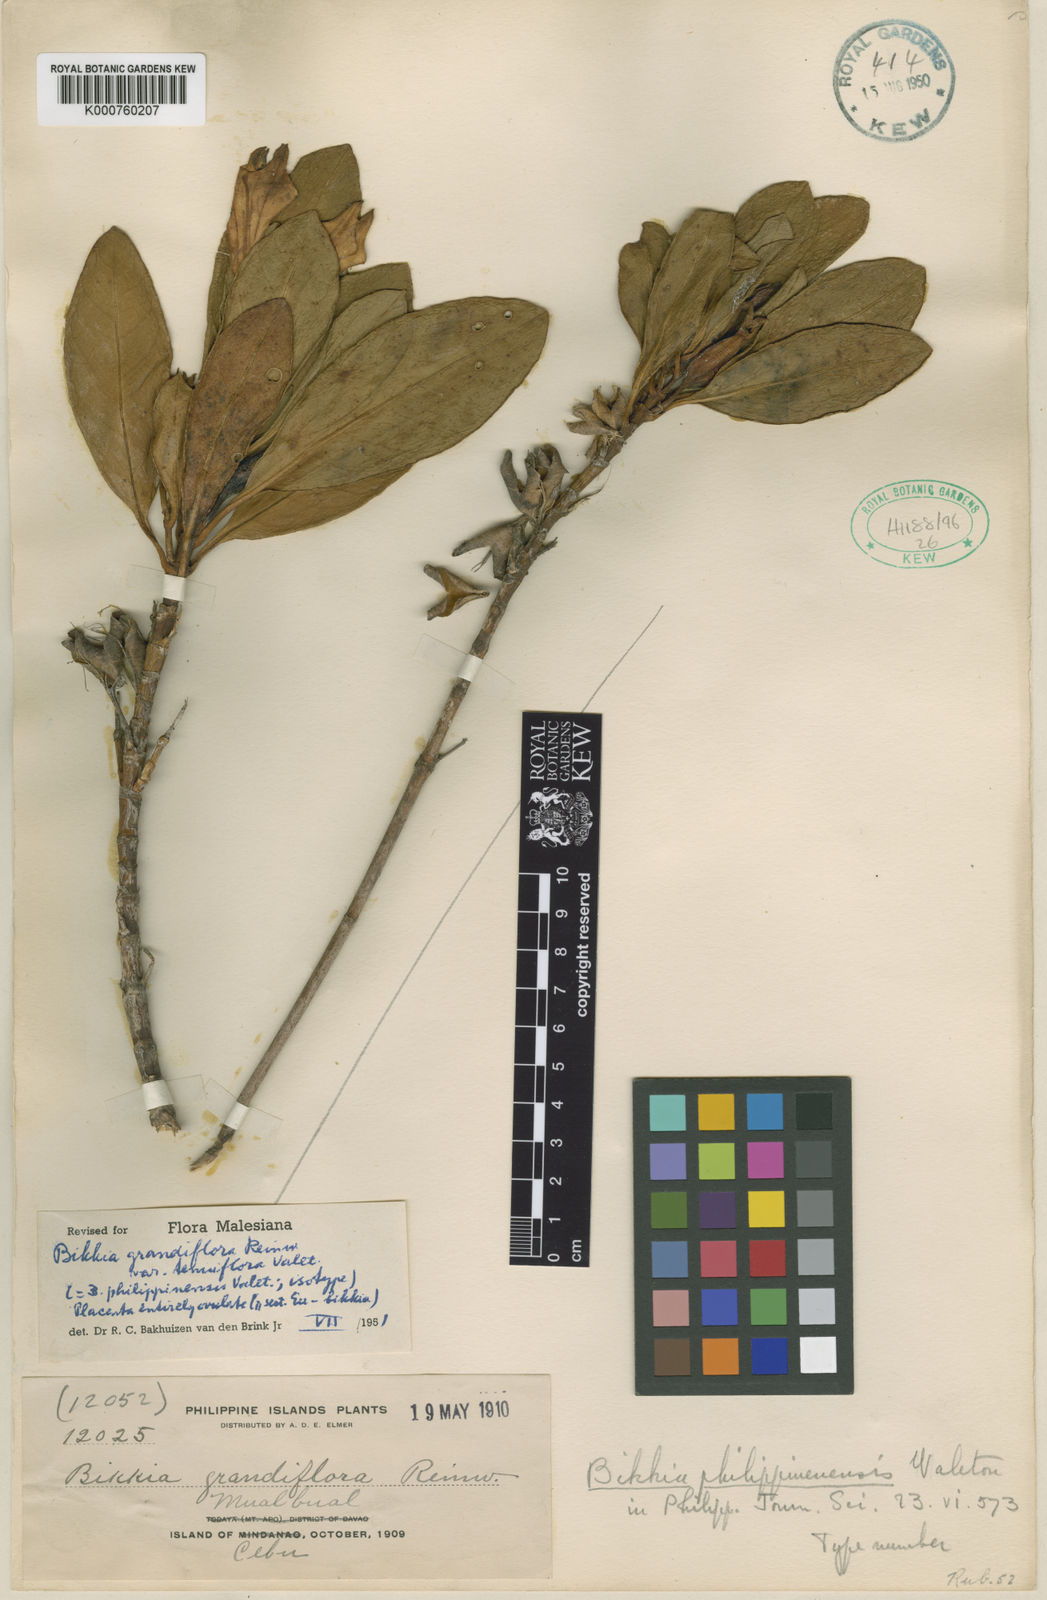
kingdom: Plantae
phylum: Tracheophyta
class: Magnoliopsida
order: Gentianales
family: Rubiaceae
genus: Bikkia
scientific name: Bikkia
